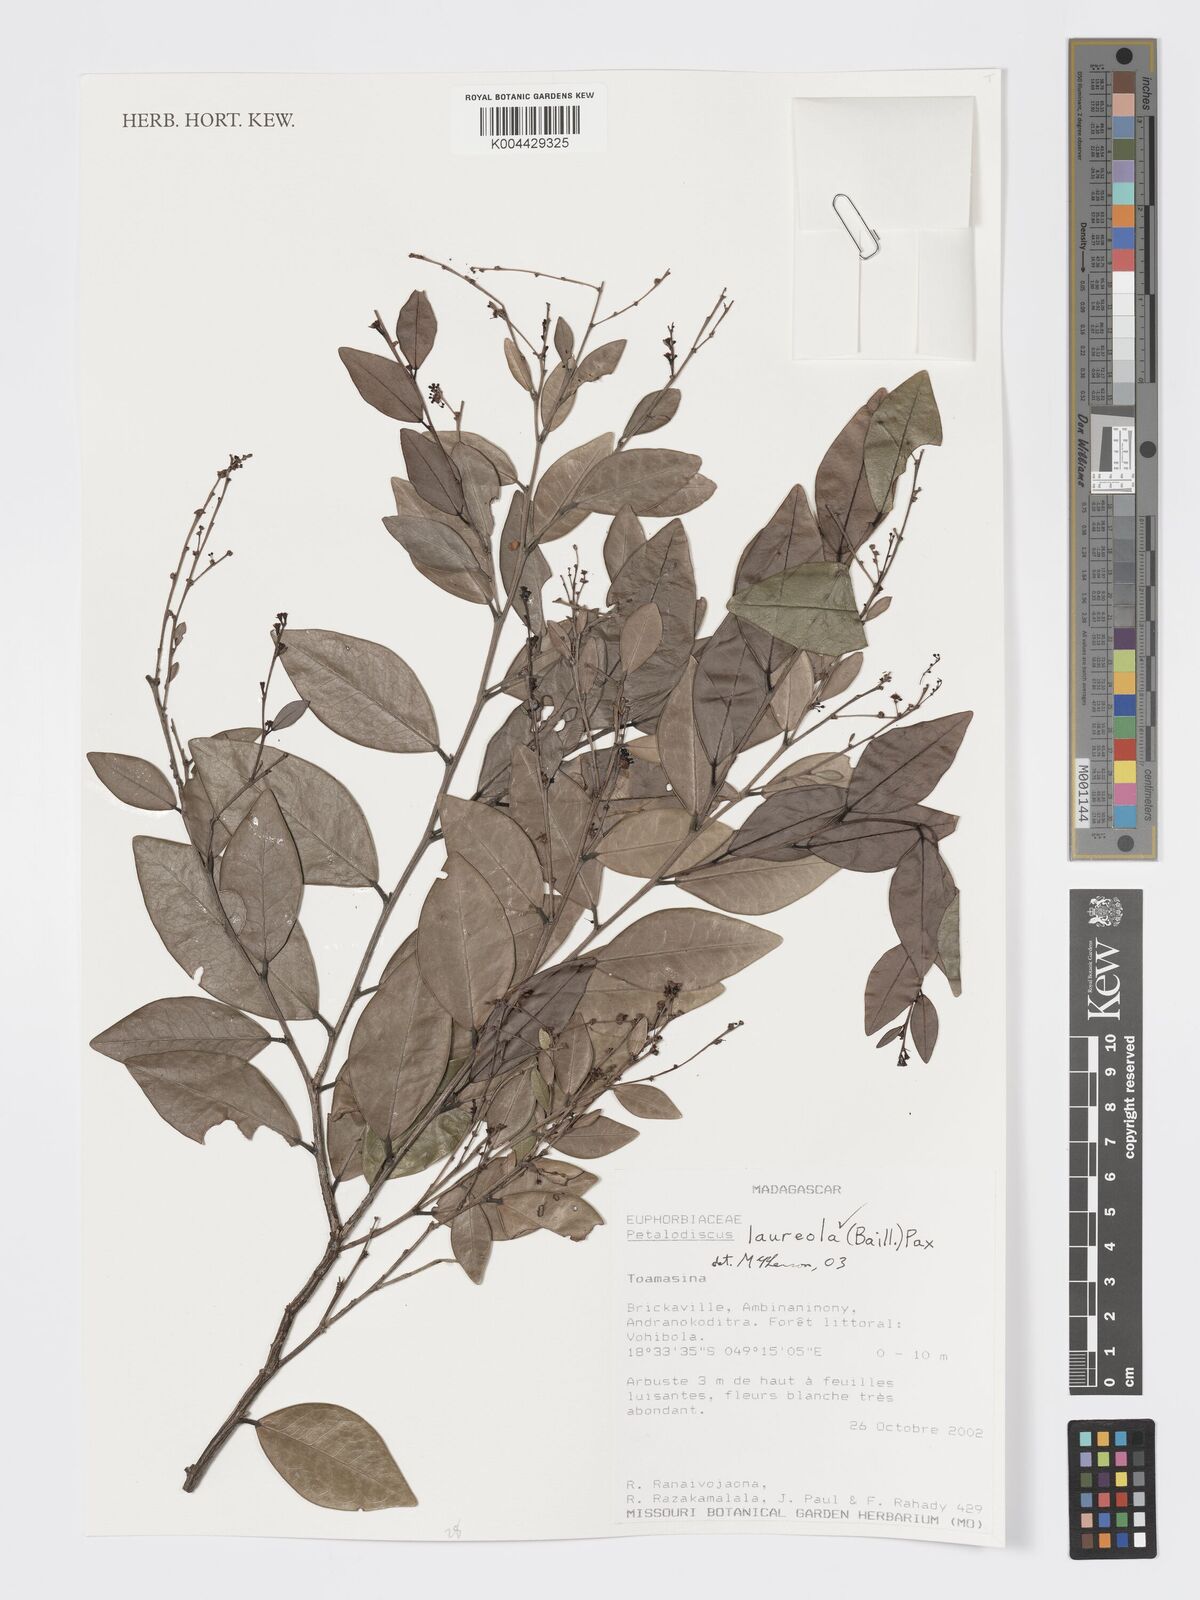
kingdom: Plantae
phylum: Tracheophyta
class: Magnoliopsida
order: Malpighiales
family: Phyllanthaceae
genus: Wielandia
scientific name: Wielandia laureola
